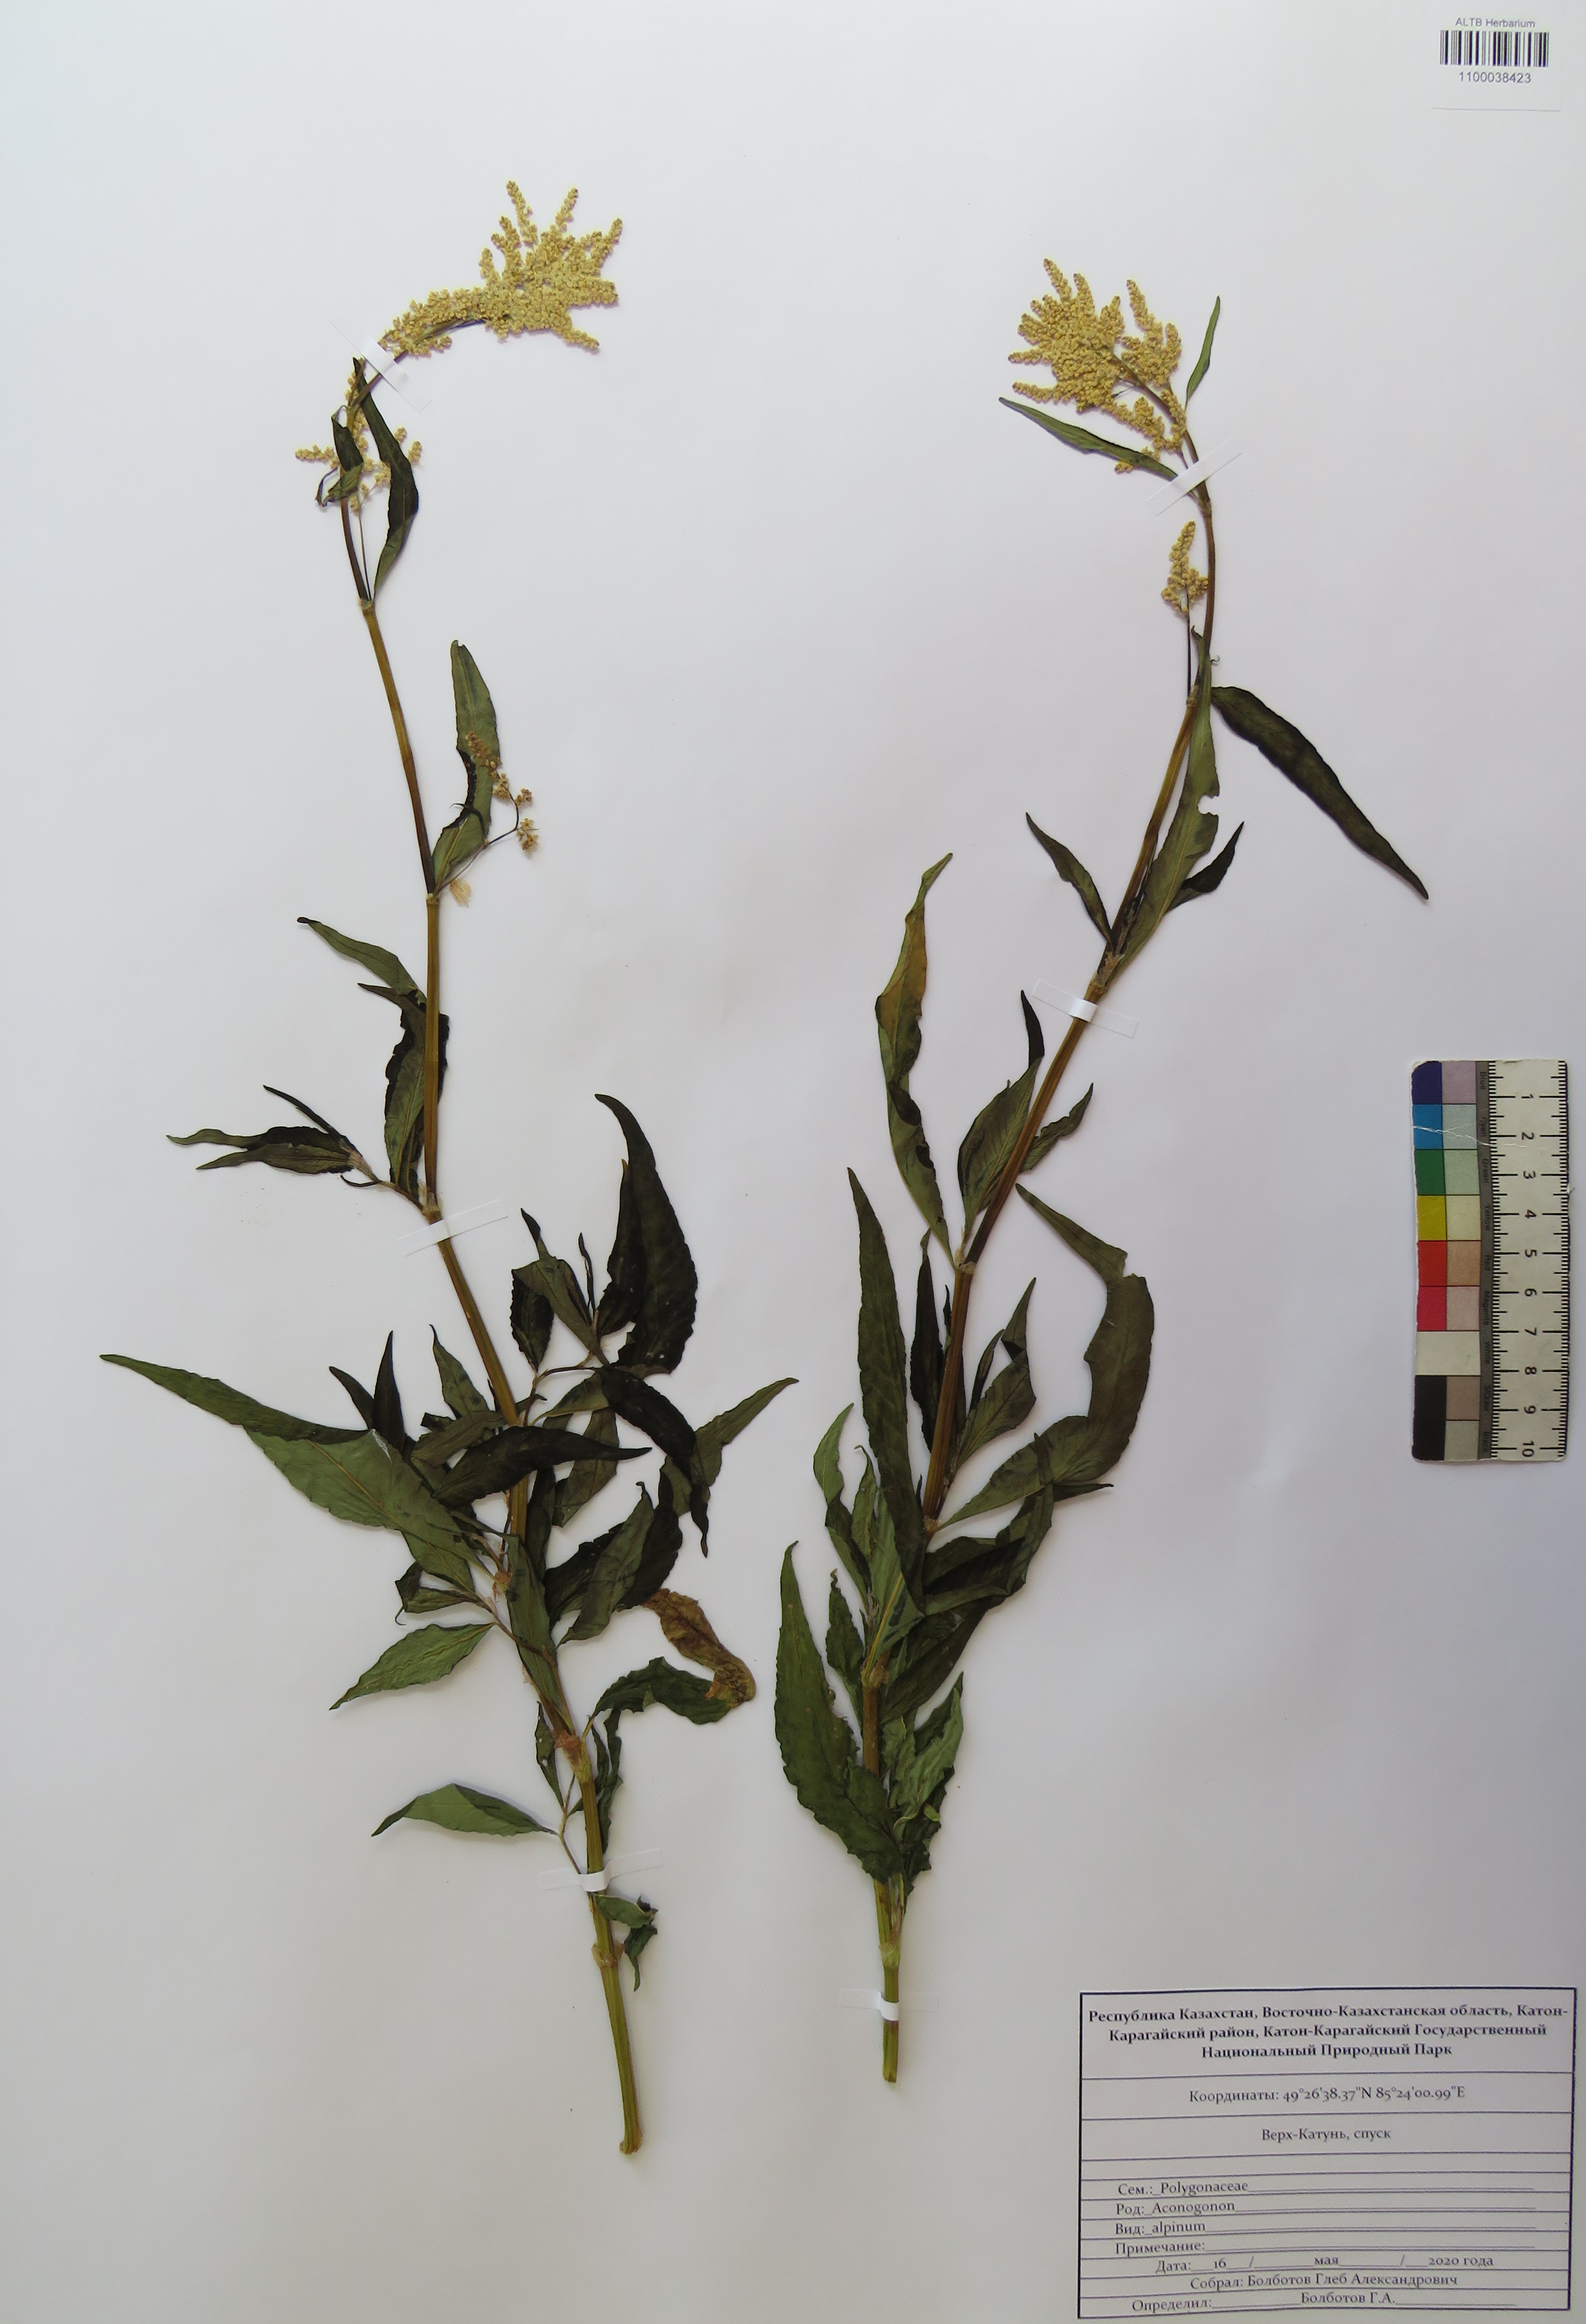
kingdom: Plantae
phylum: Tracheophyta
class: Magnoliopsida
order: Caryophyllales
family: Polygonaceae
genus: Koenigia
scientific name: Koenigia alpina
